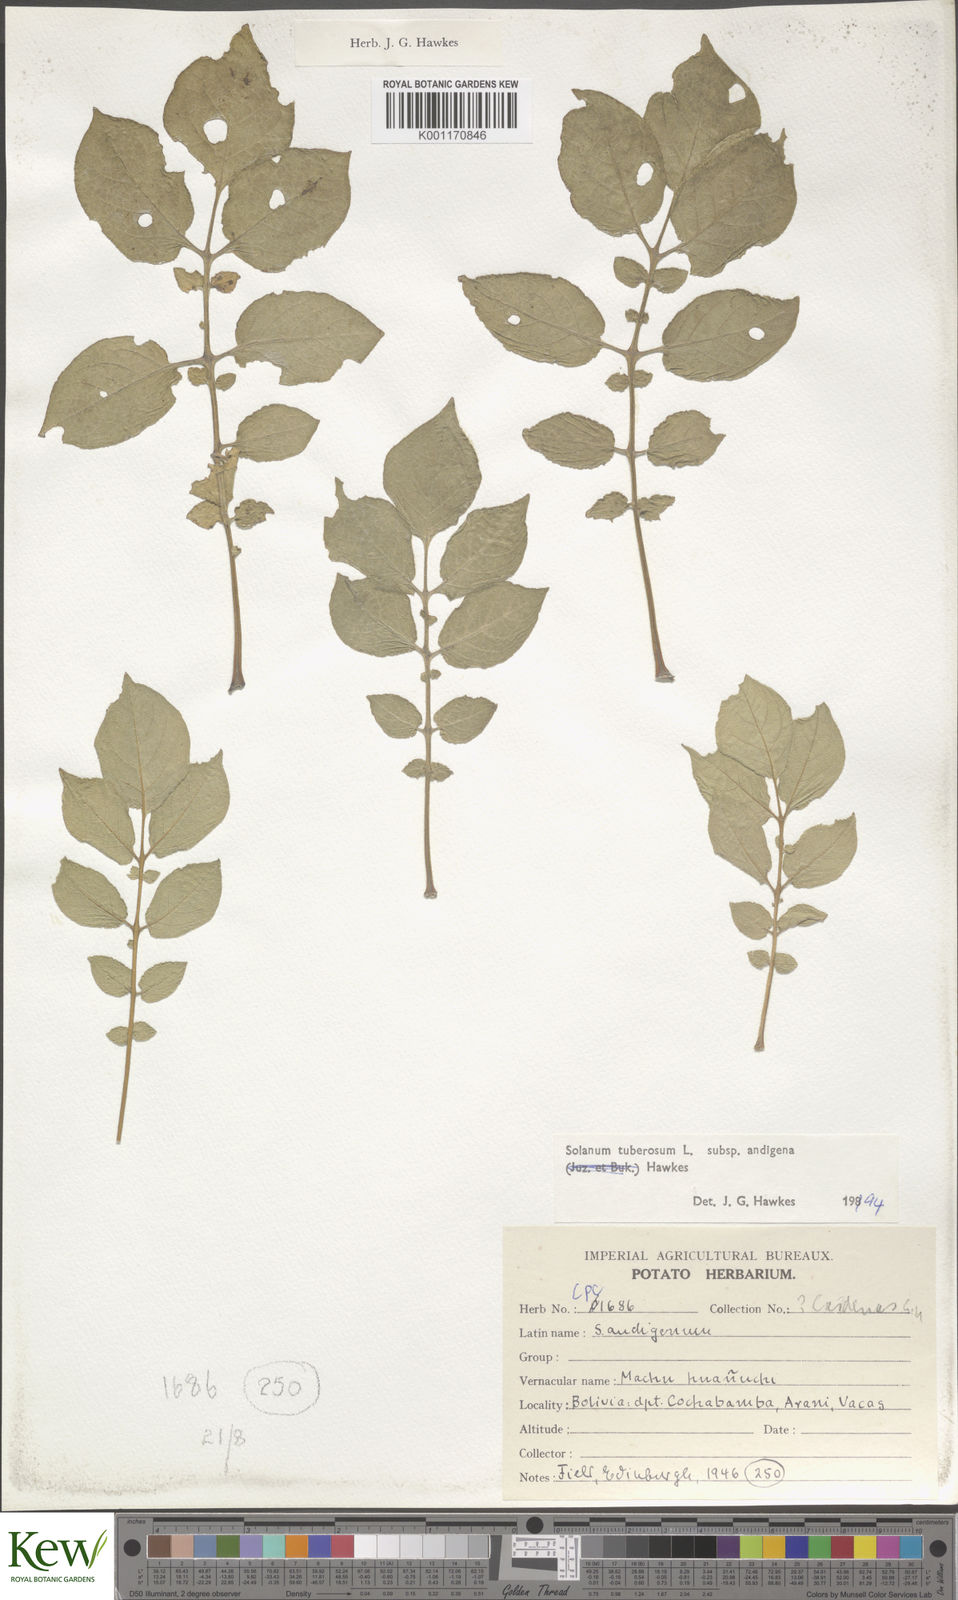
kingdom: Plantae
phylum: Tracheophyta
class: Magnoliopsida
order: Solanales
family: Solanaceae
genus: Solanum
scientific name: Solanum tuberosum
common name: Potato
